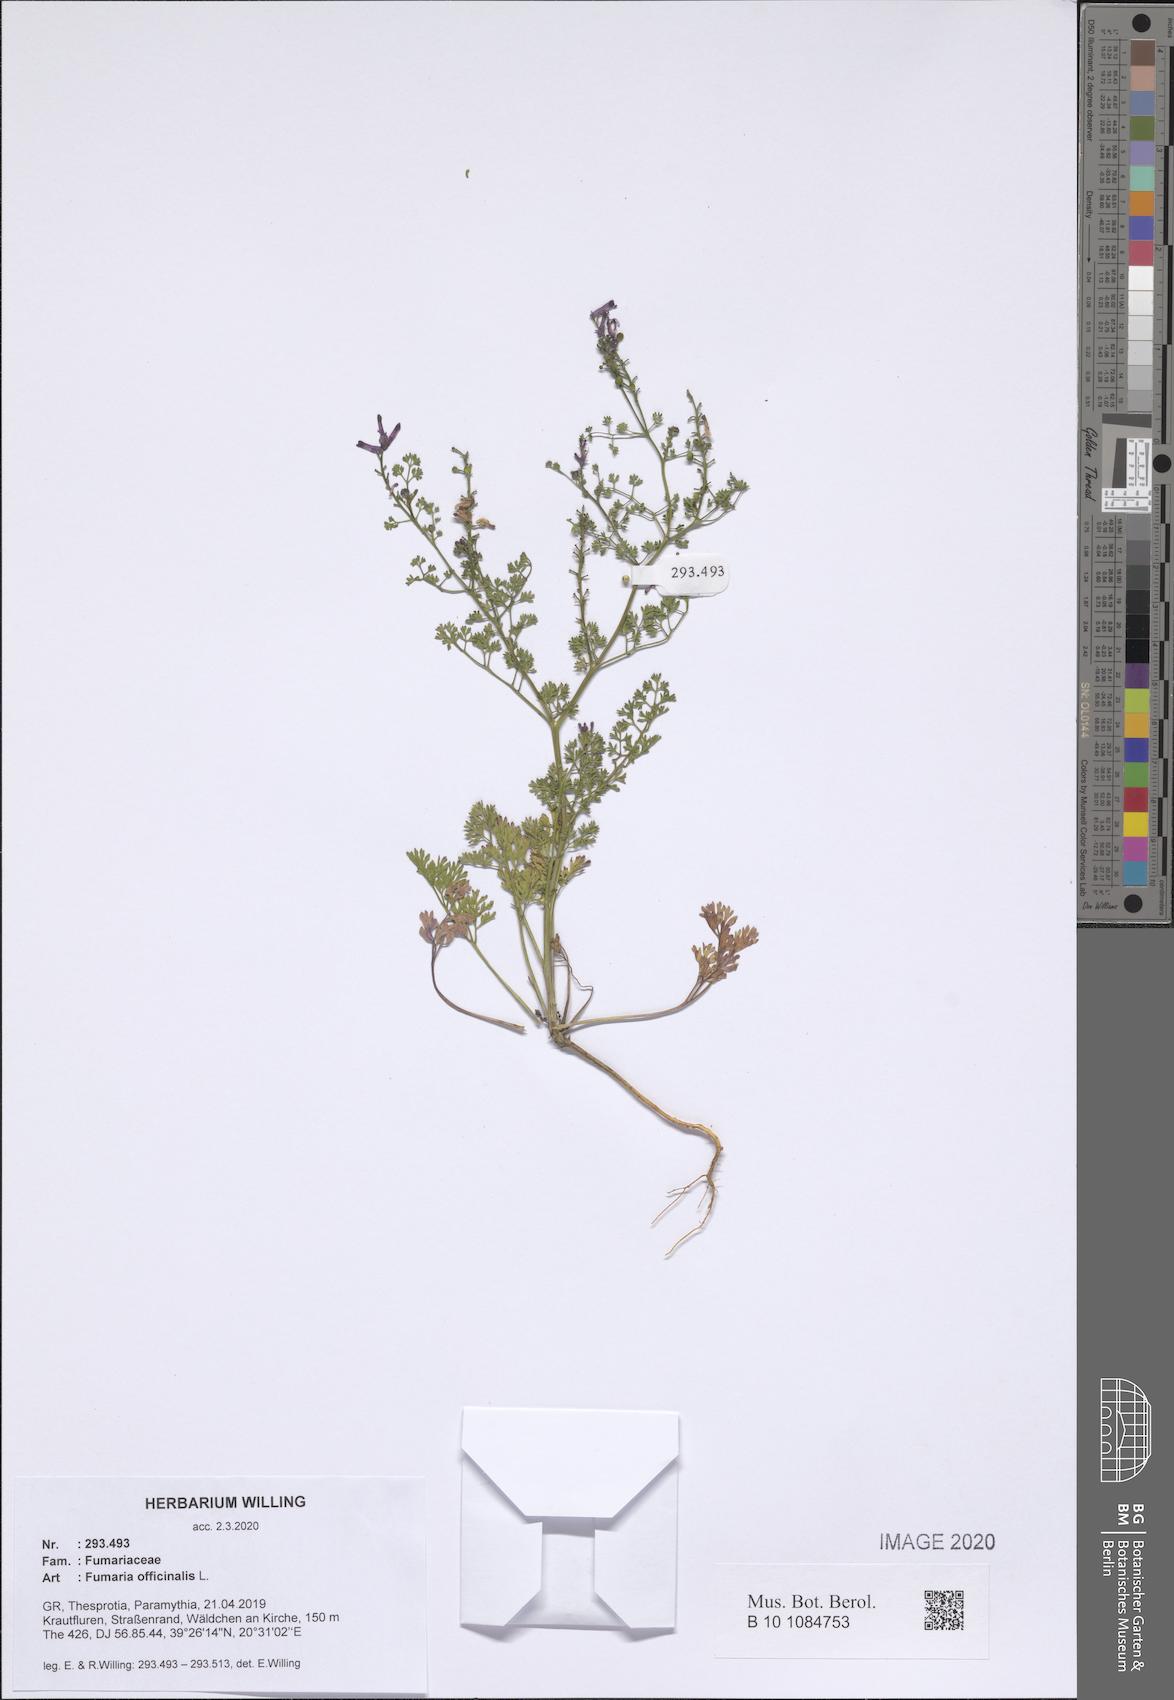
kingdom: Plantae
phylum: Tracheophyta
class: Magnoliopsida
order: Ranunculales
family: Papaveraceae
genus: Fumaria
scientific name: Fumaria officinalis
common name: Common fumitory
